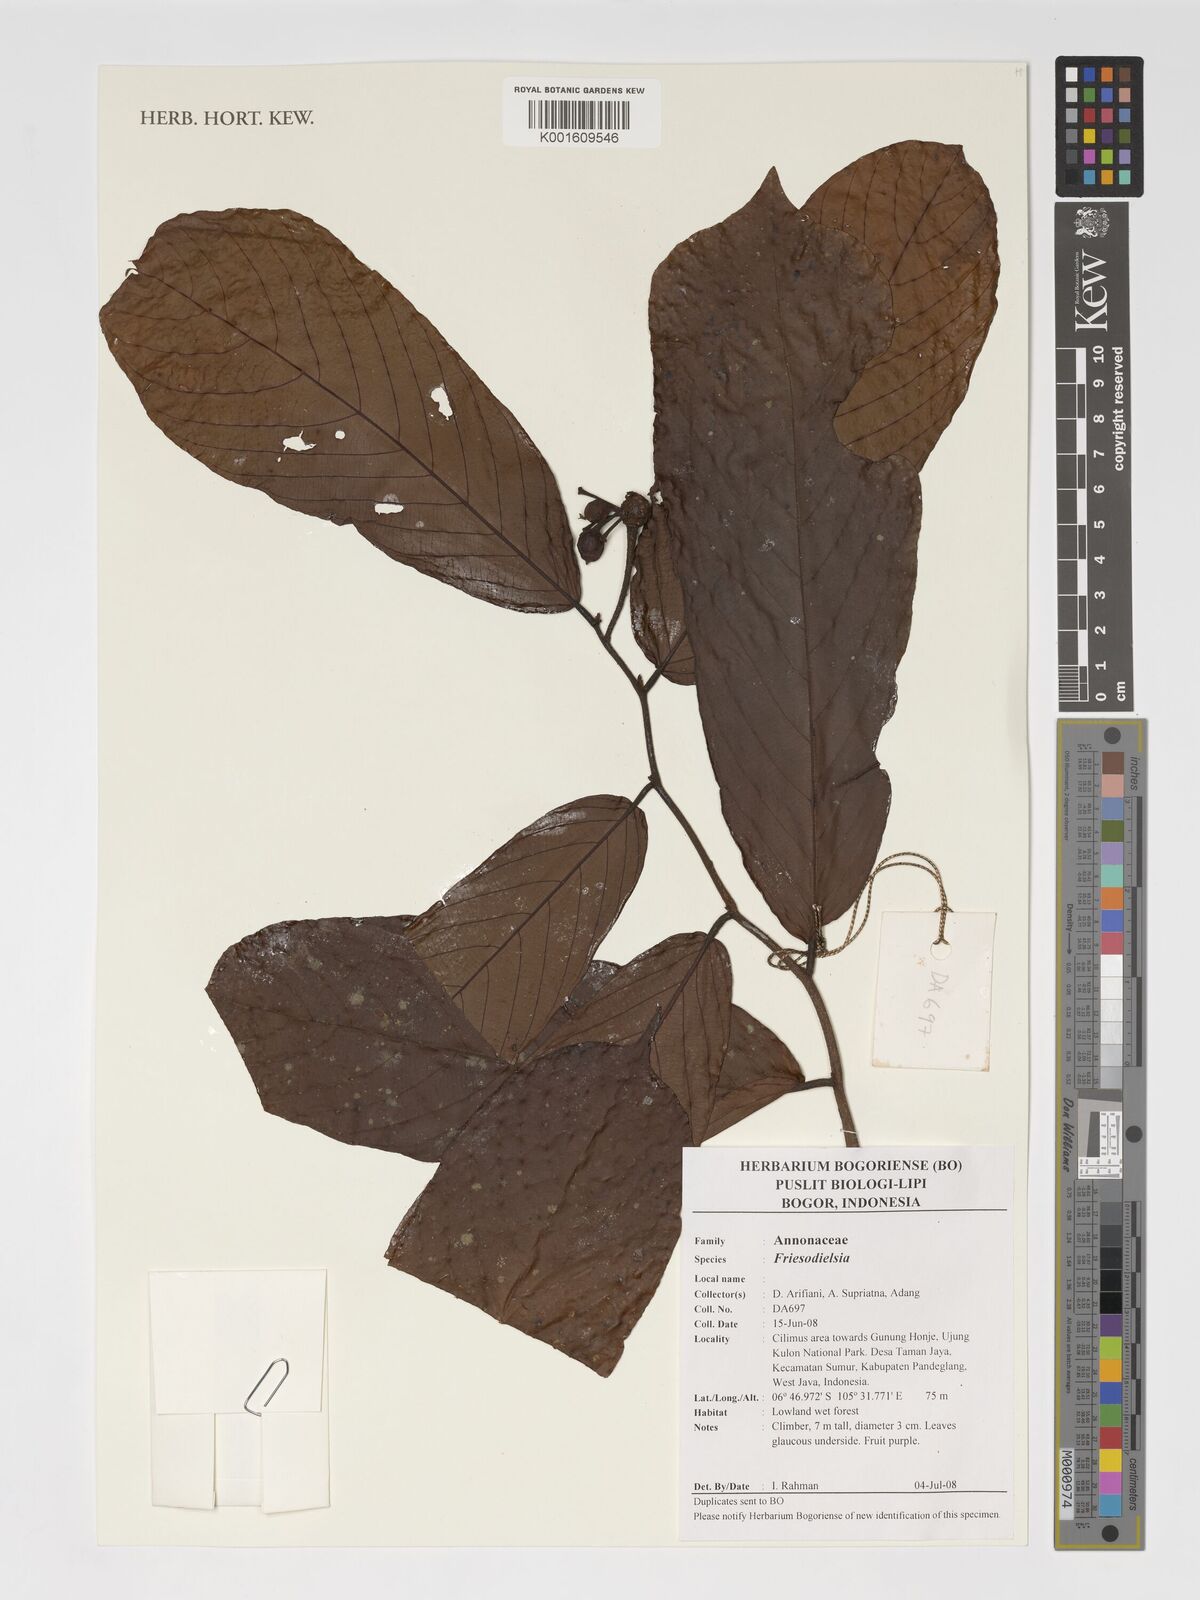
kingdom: Plantae
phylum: Tracheophyta
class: Magnoliopsida
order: Magnoliales
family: Annonaceae
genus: Friesodielsia
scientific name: Friesodielsia
